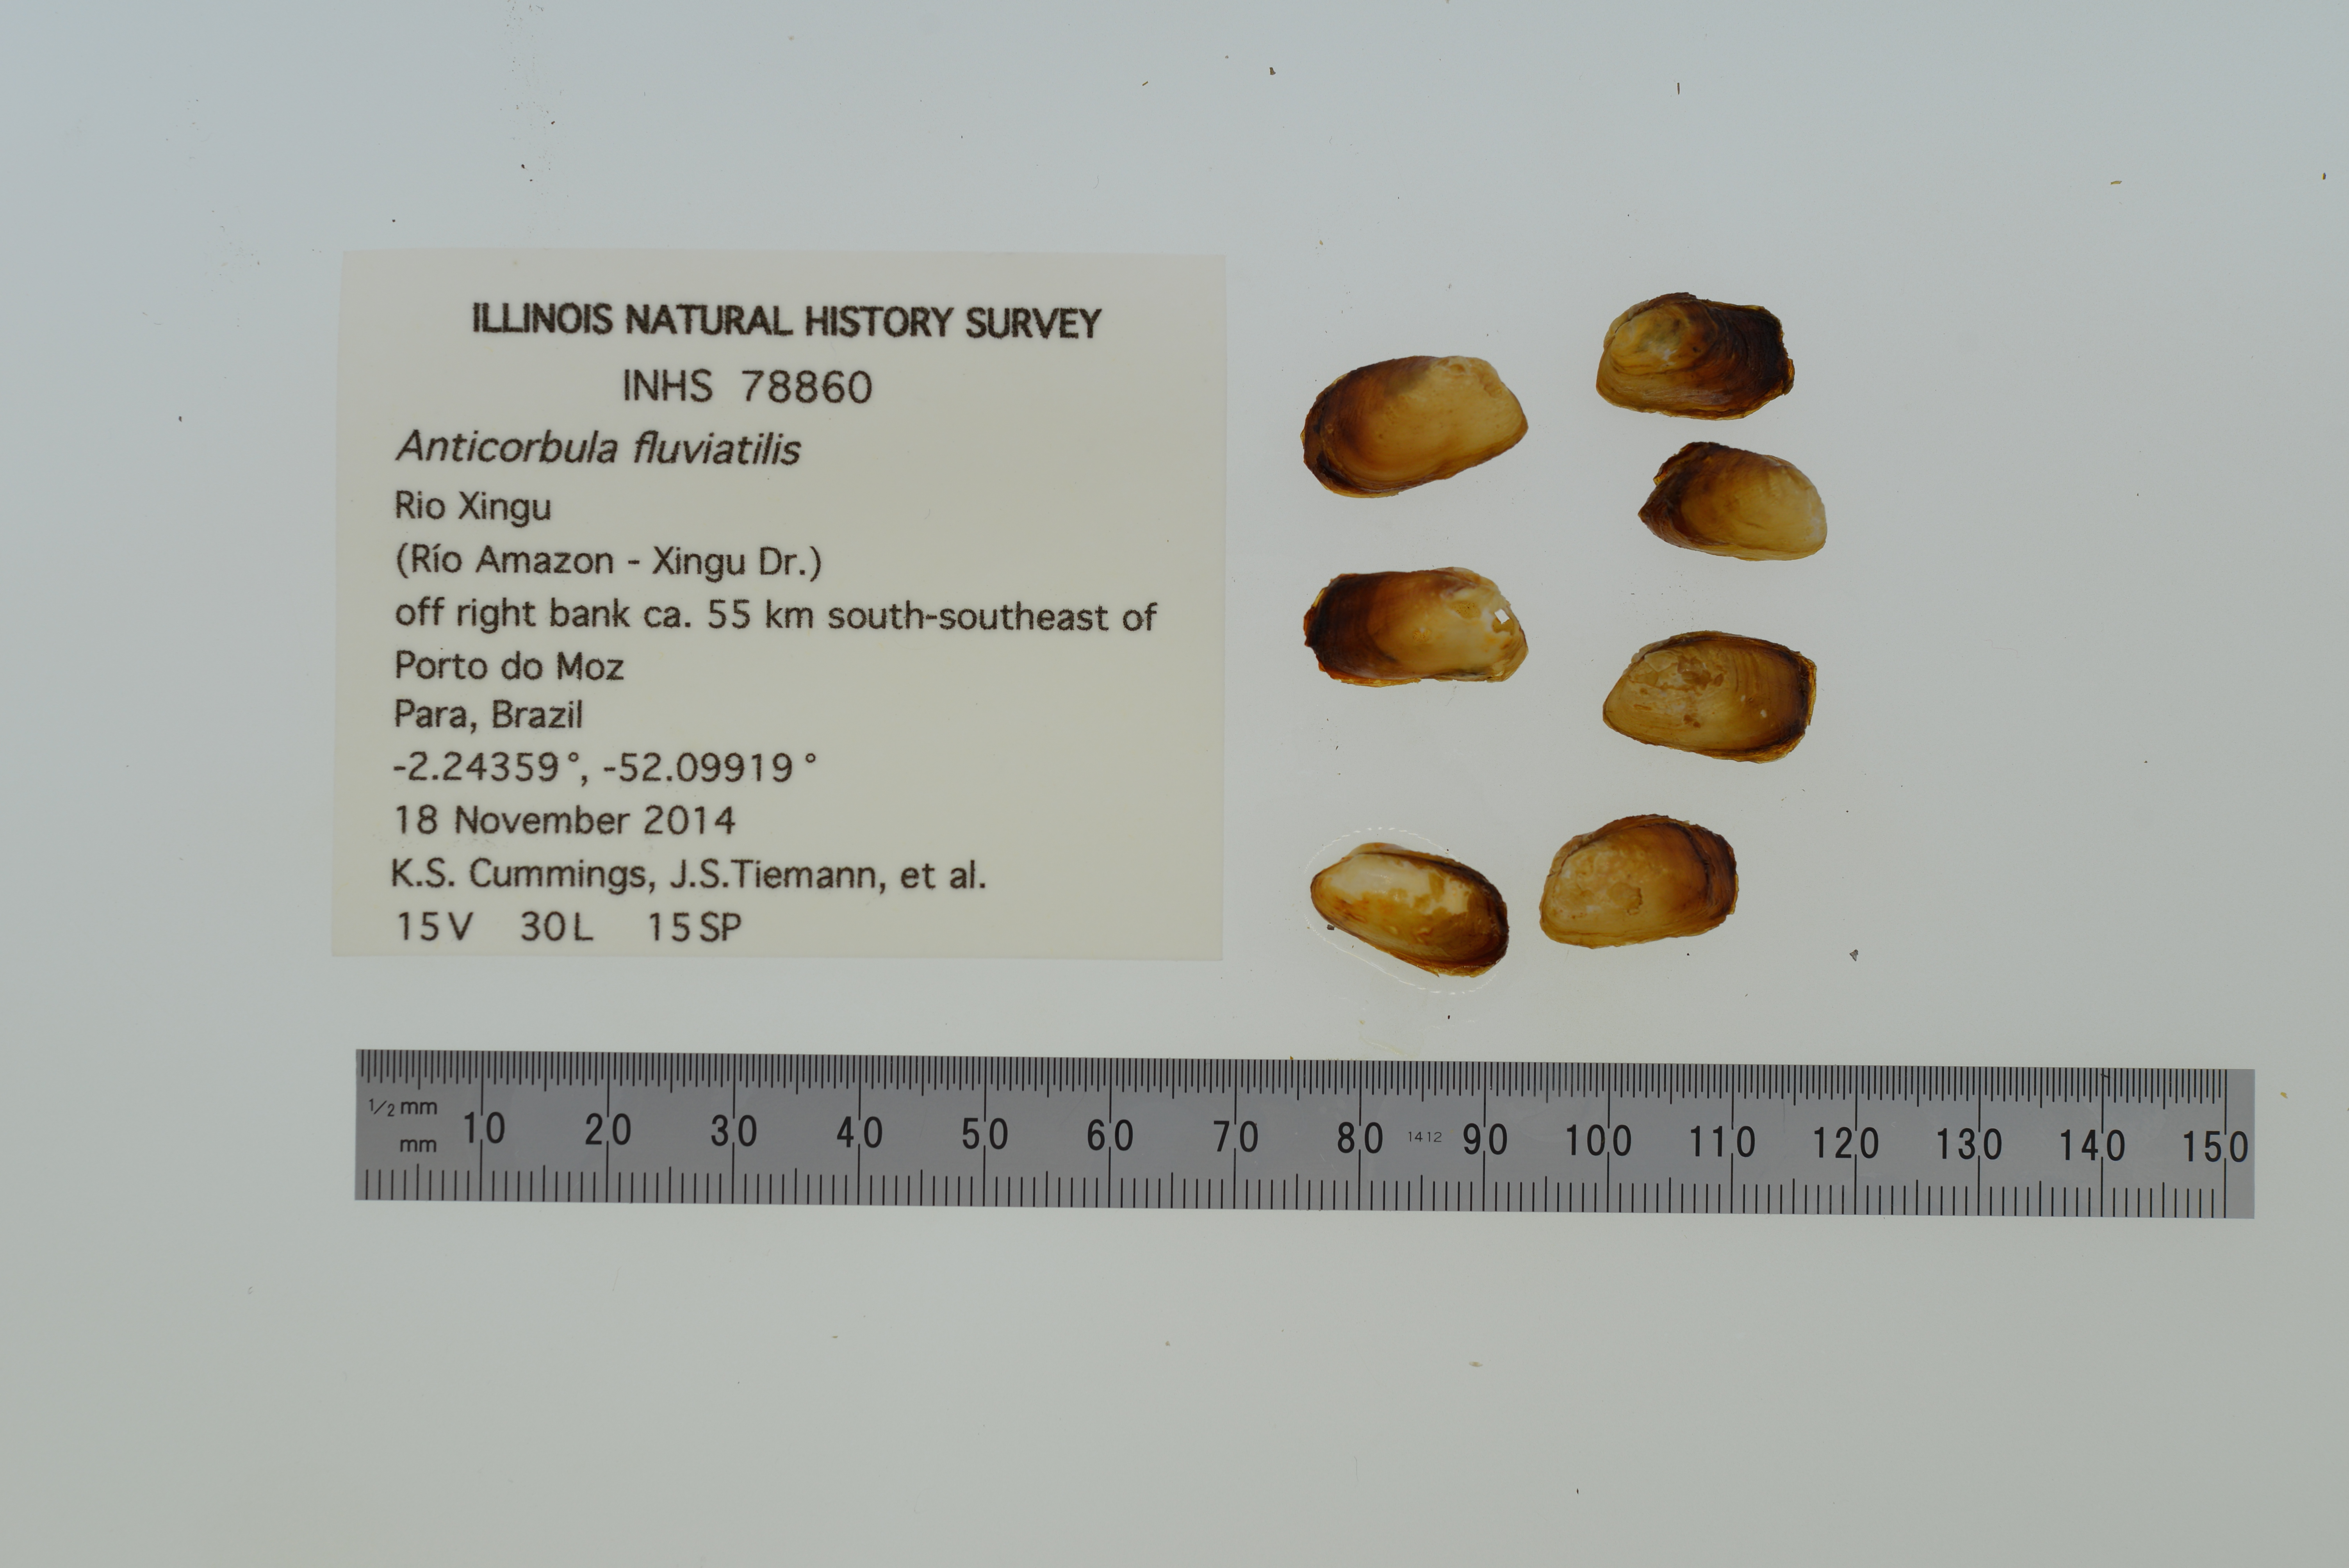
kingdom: Animalia
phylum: Mollusca
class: Bivalvia
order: Myida
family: Corbulidae
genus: Anticorbula
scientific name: Anticorbula fluviatilis
